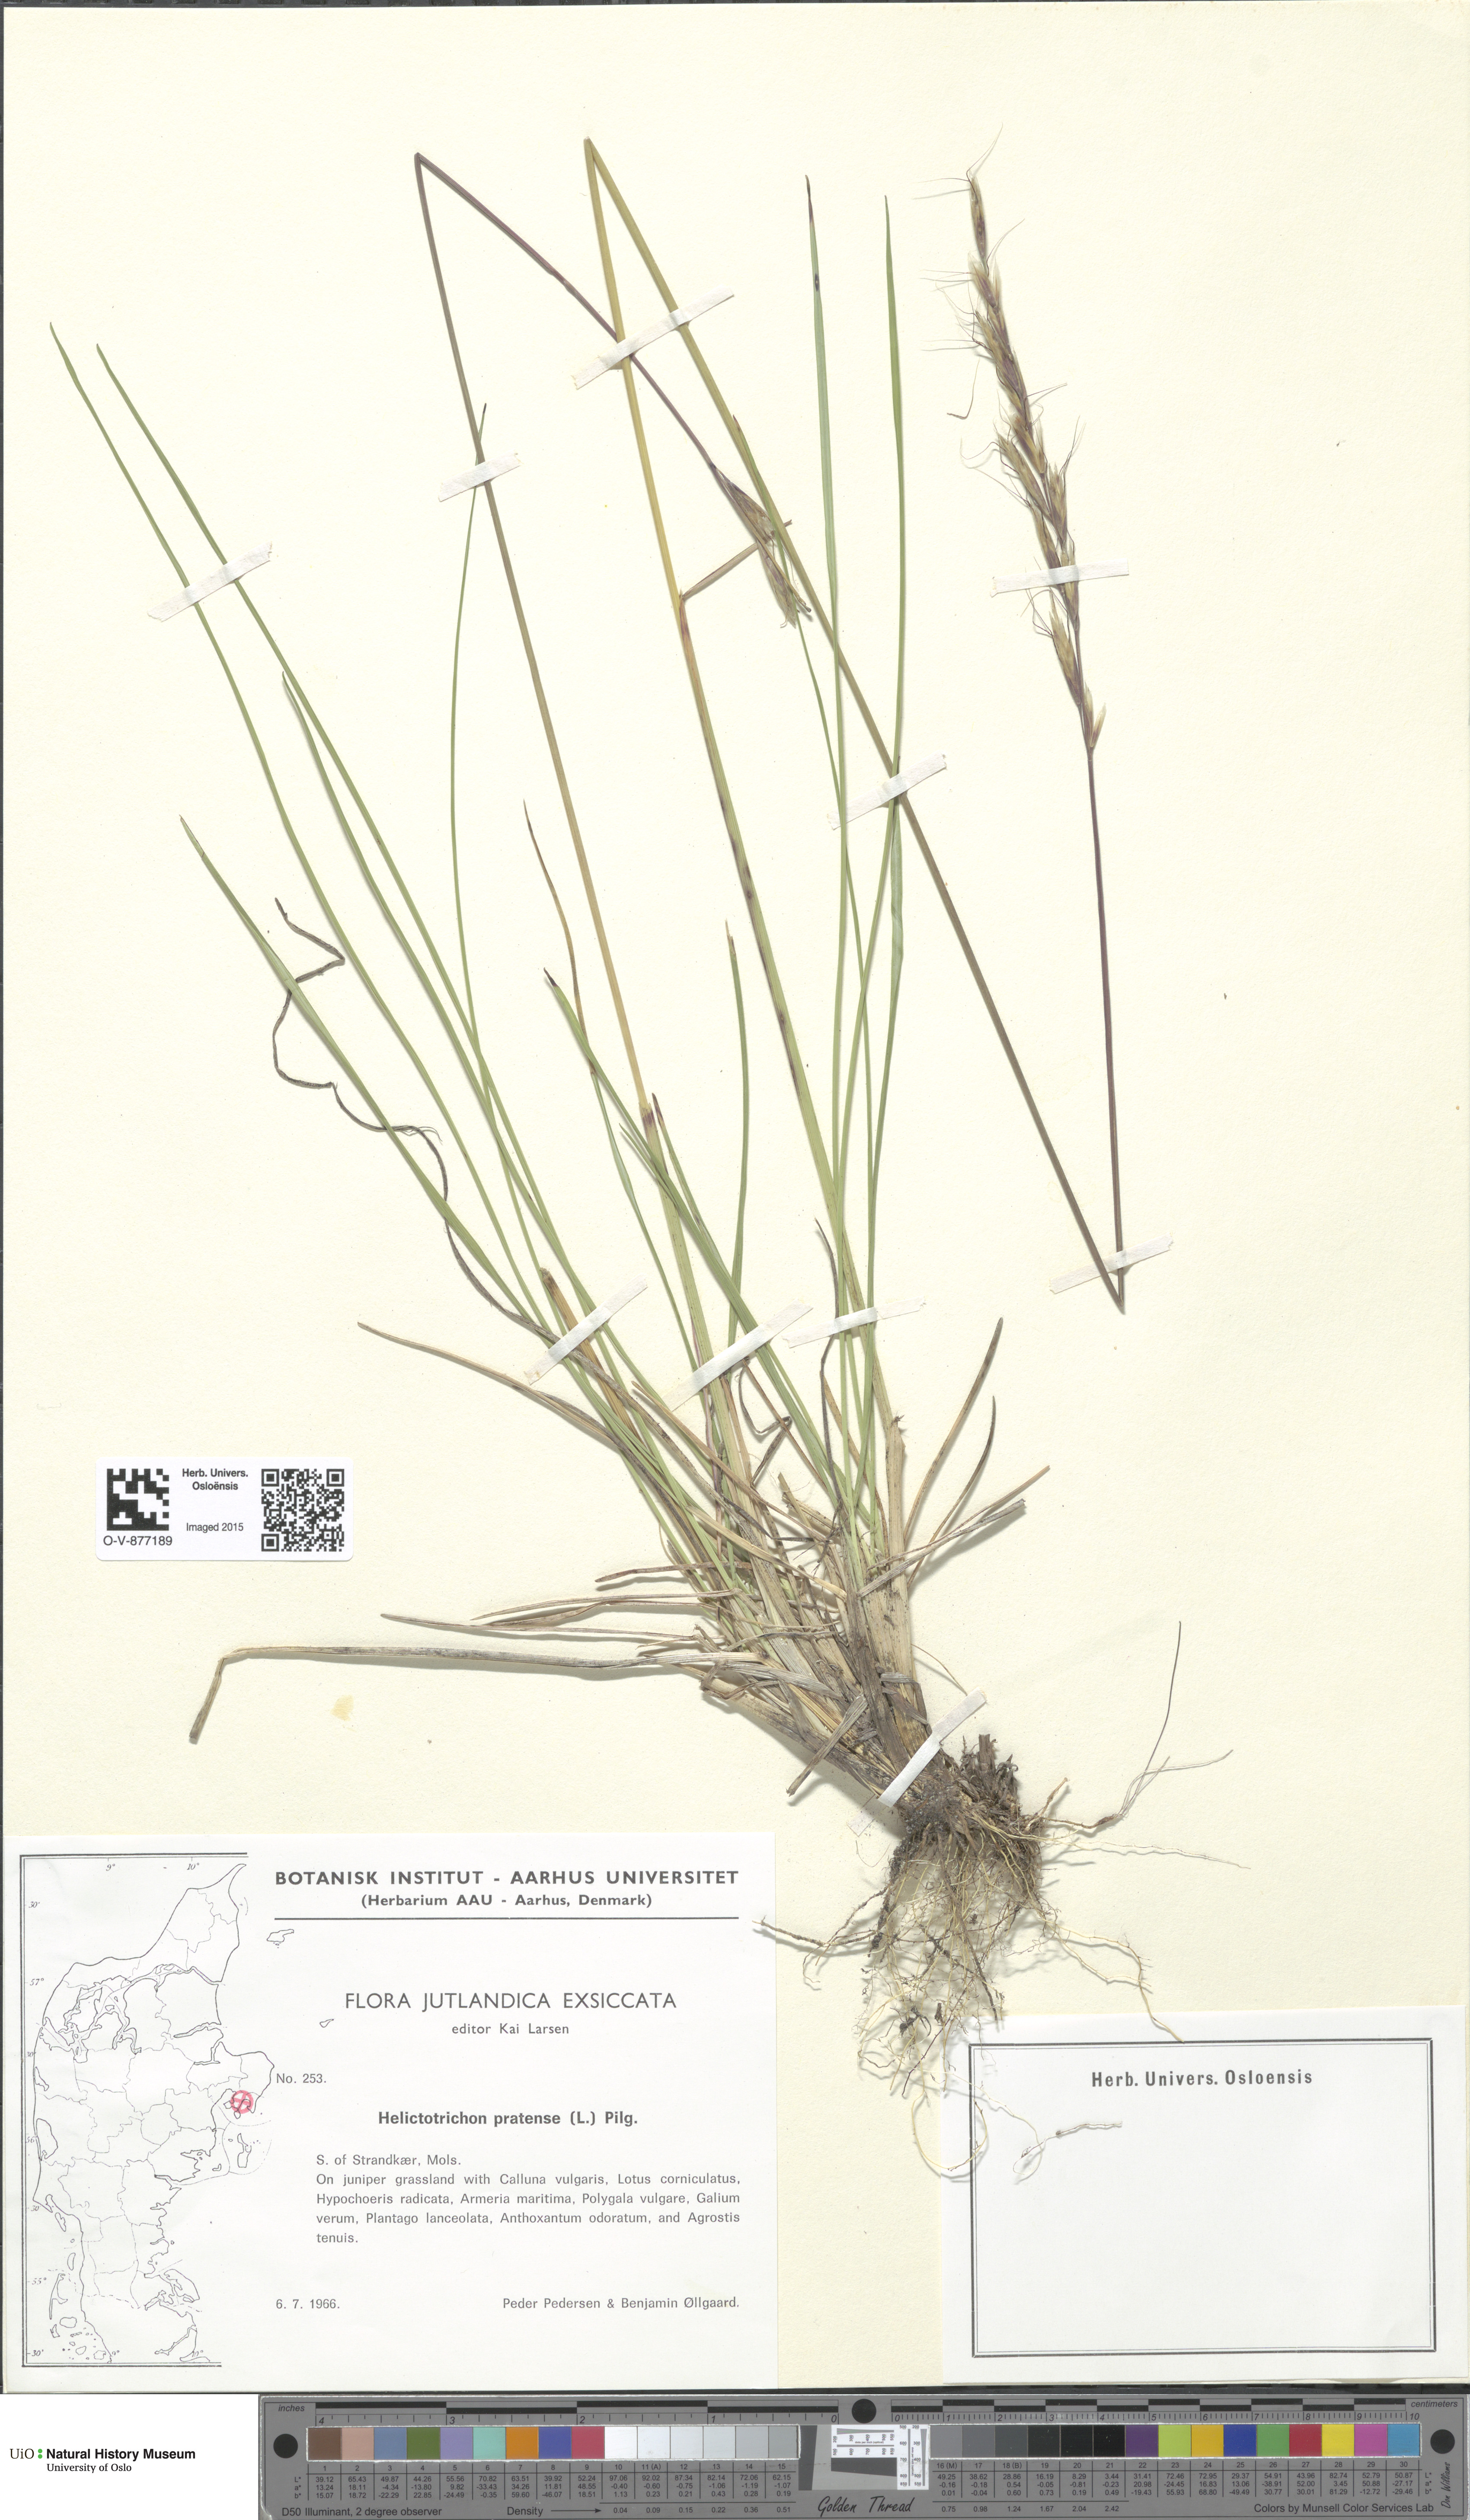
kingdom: Plantae
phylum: Tracheophyta
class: Liliopsida
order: Poales
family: Poaceae
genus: Helictochloa
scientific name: Helictochloa pratensis
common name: Meadow oat grass
